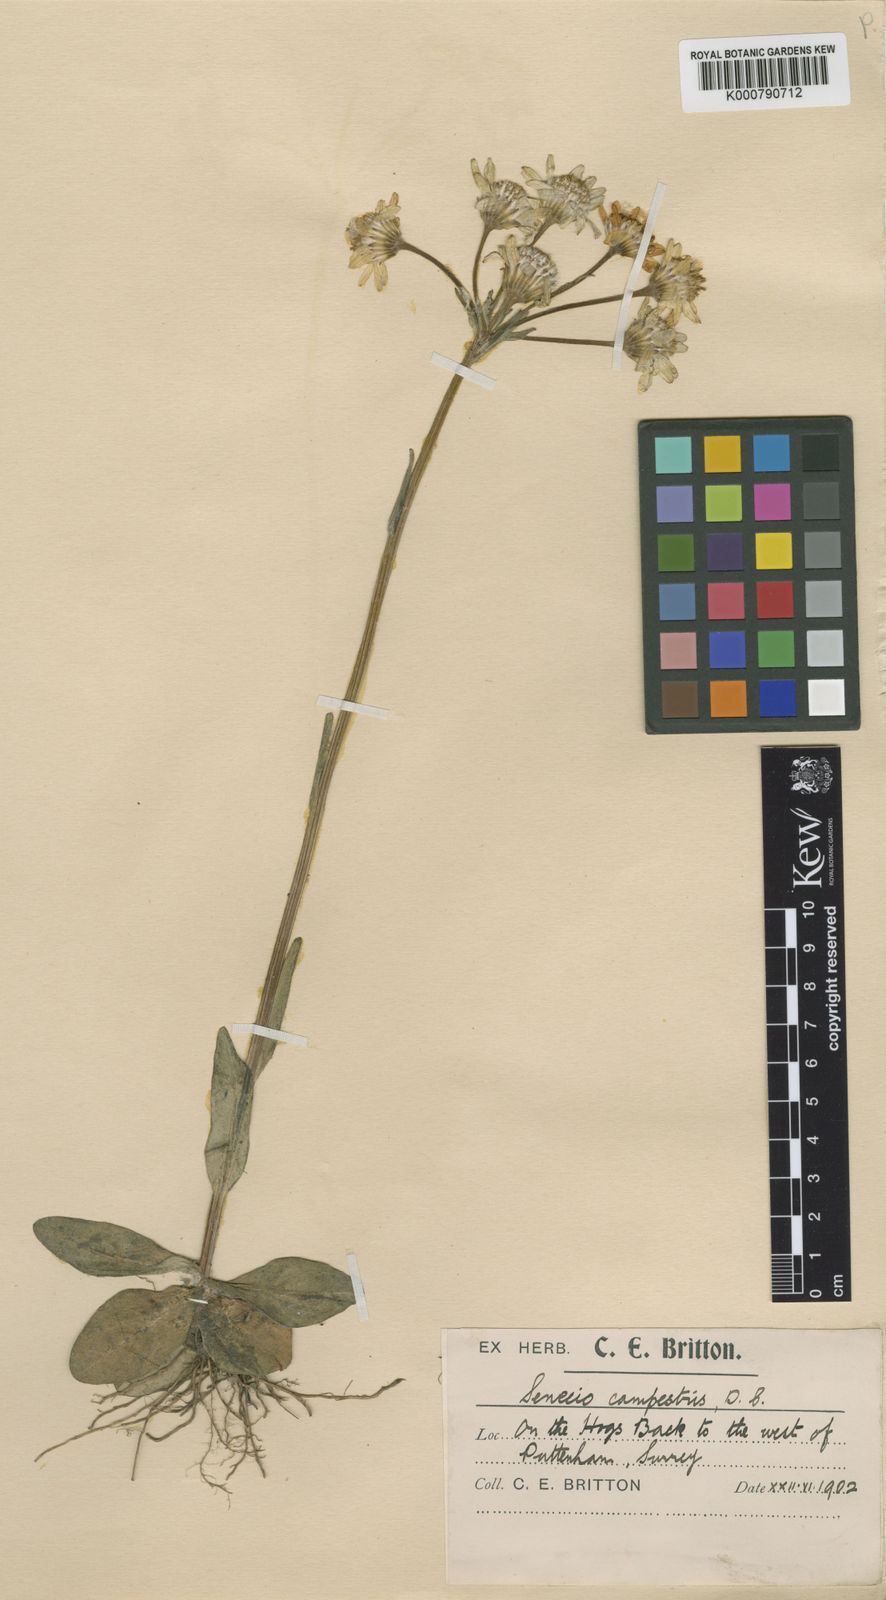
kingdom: Plantae
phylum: Tracheophyta
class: Magnoliopsida
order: Asterales
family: Asteraceae
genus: Tephroseris
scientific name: Tephroseris integrifolia
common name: Field fleawort
